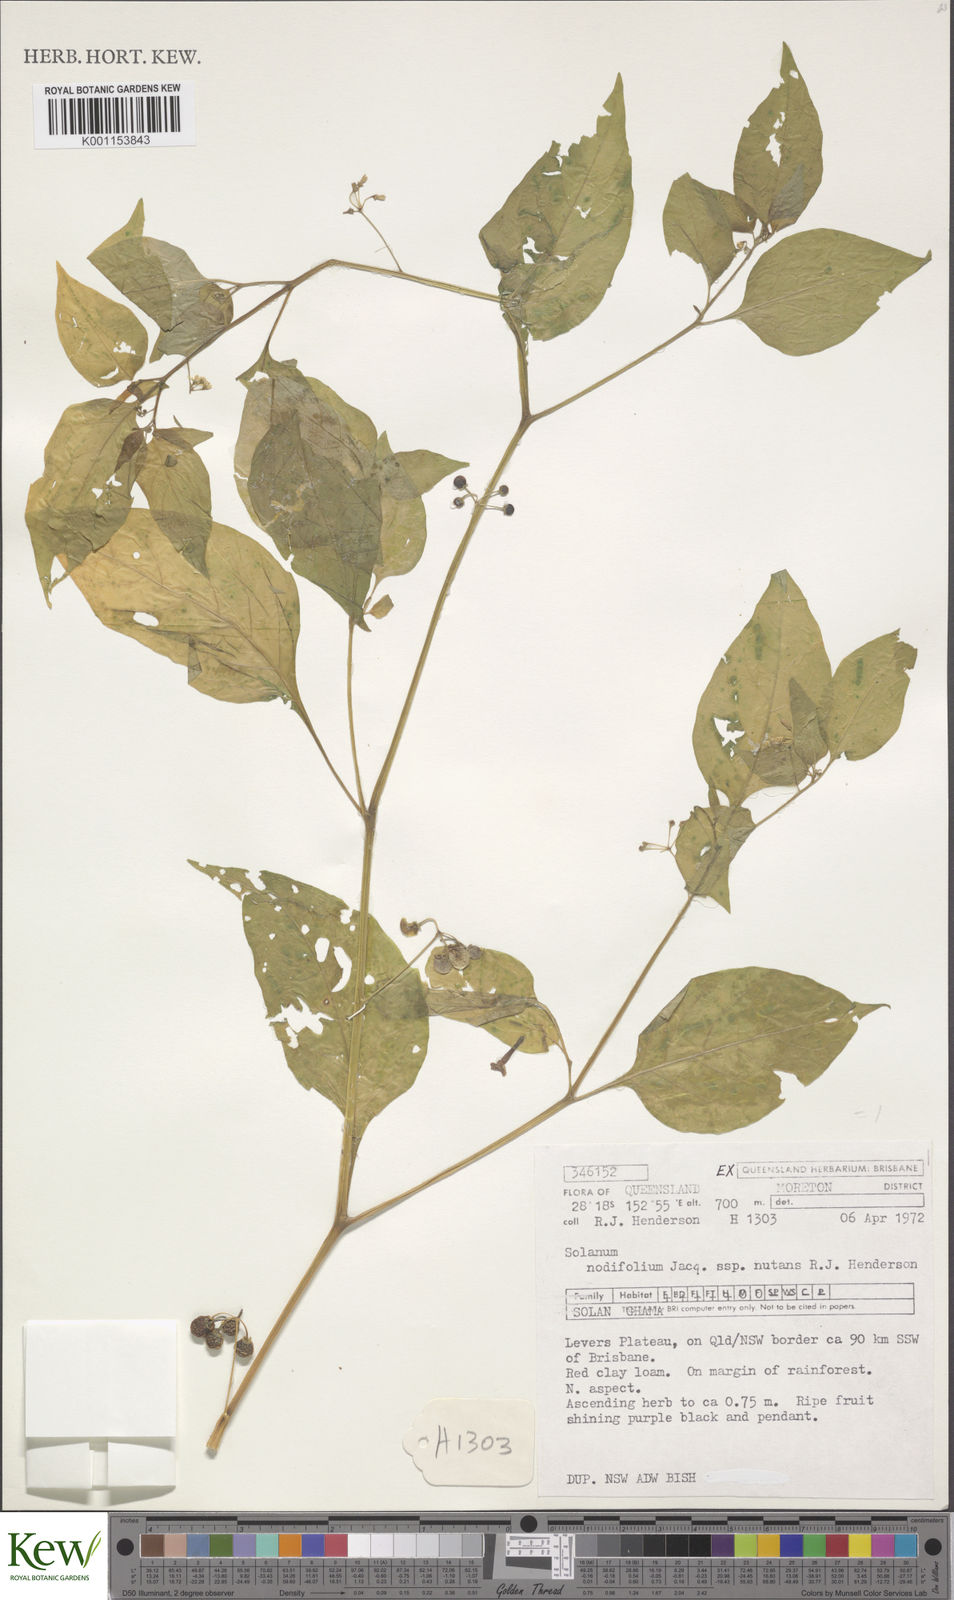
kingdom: Plantae
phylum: Tracheophyta
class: Magnoliopsida
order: Solanales
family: Solanaceae
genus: Solanum
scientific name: Solanum americanum
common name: American black nightshade
